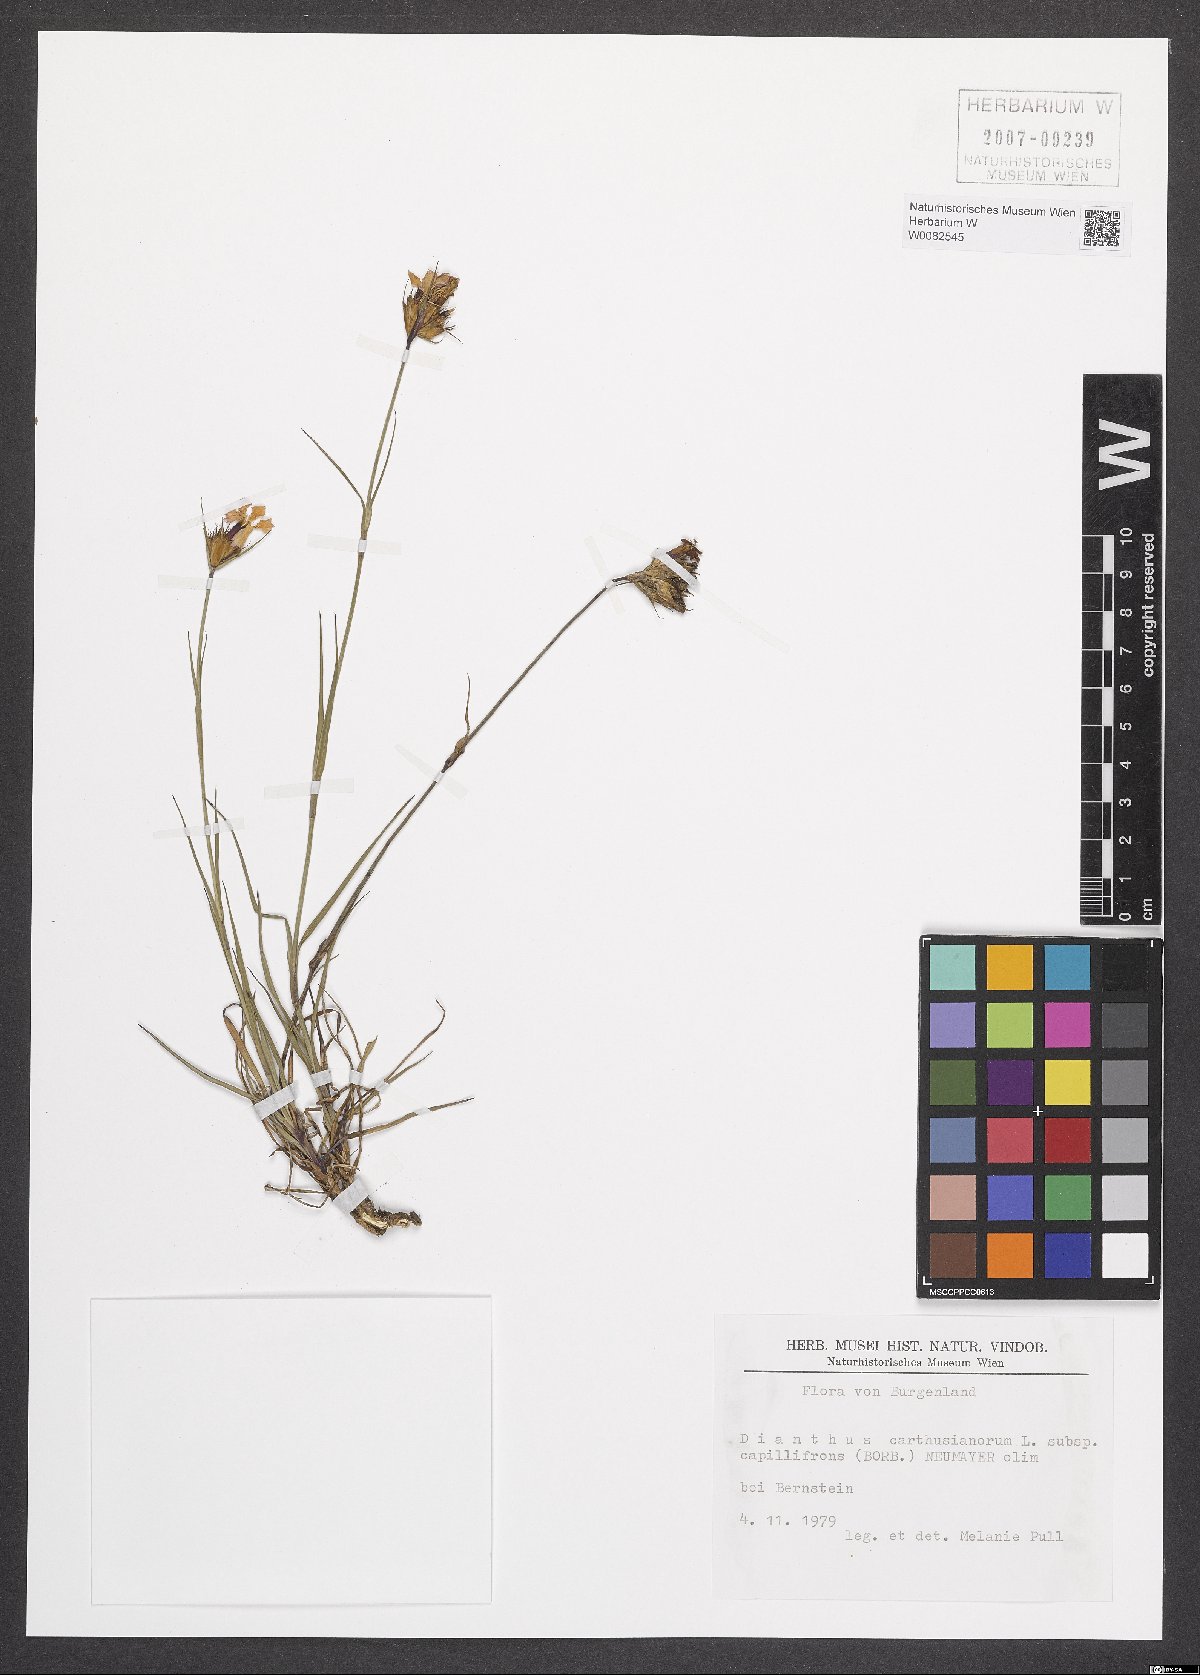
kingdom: Plantae
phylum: Tracheophyta
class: Magnoliopsida
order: Caryophyllales
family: Caryophyllaceae
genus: Dianthus
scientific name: Dianthus carthusianorum
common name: Carthusian pink
